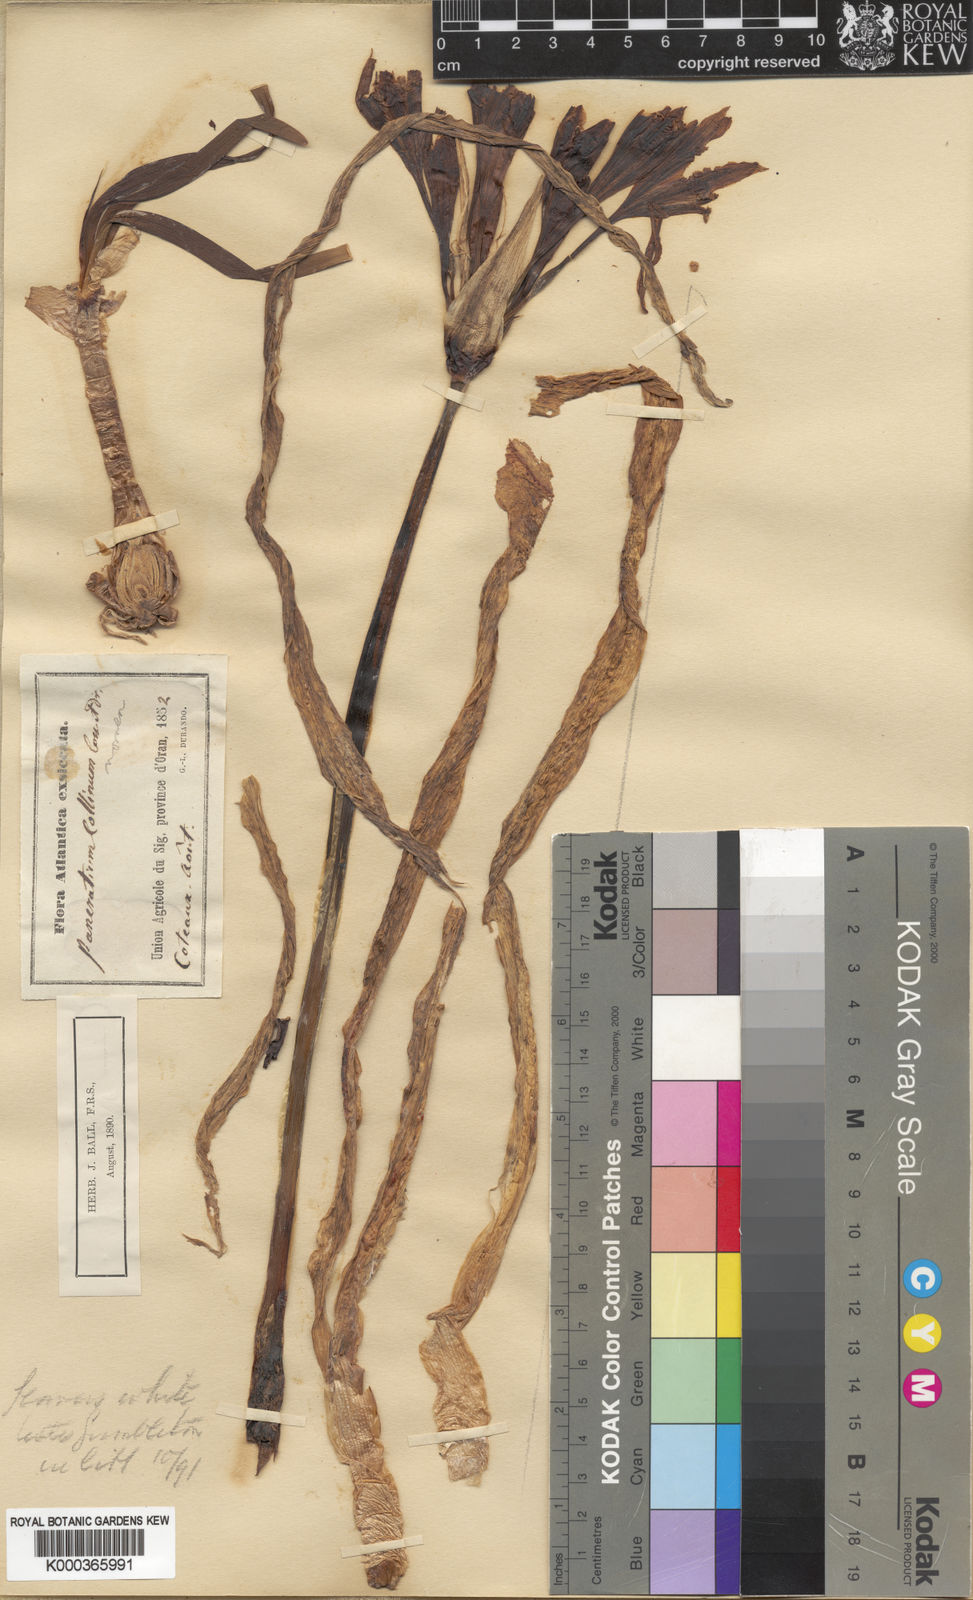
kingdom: Plantae
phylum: Tracheophyta
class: Liliopsida
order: Asparagales
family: Amaryllidaceae
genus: Pancratium
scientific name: Pancratium foetidum
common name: Stinking daffodil
